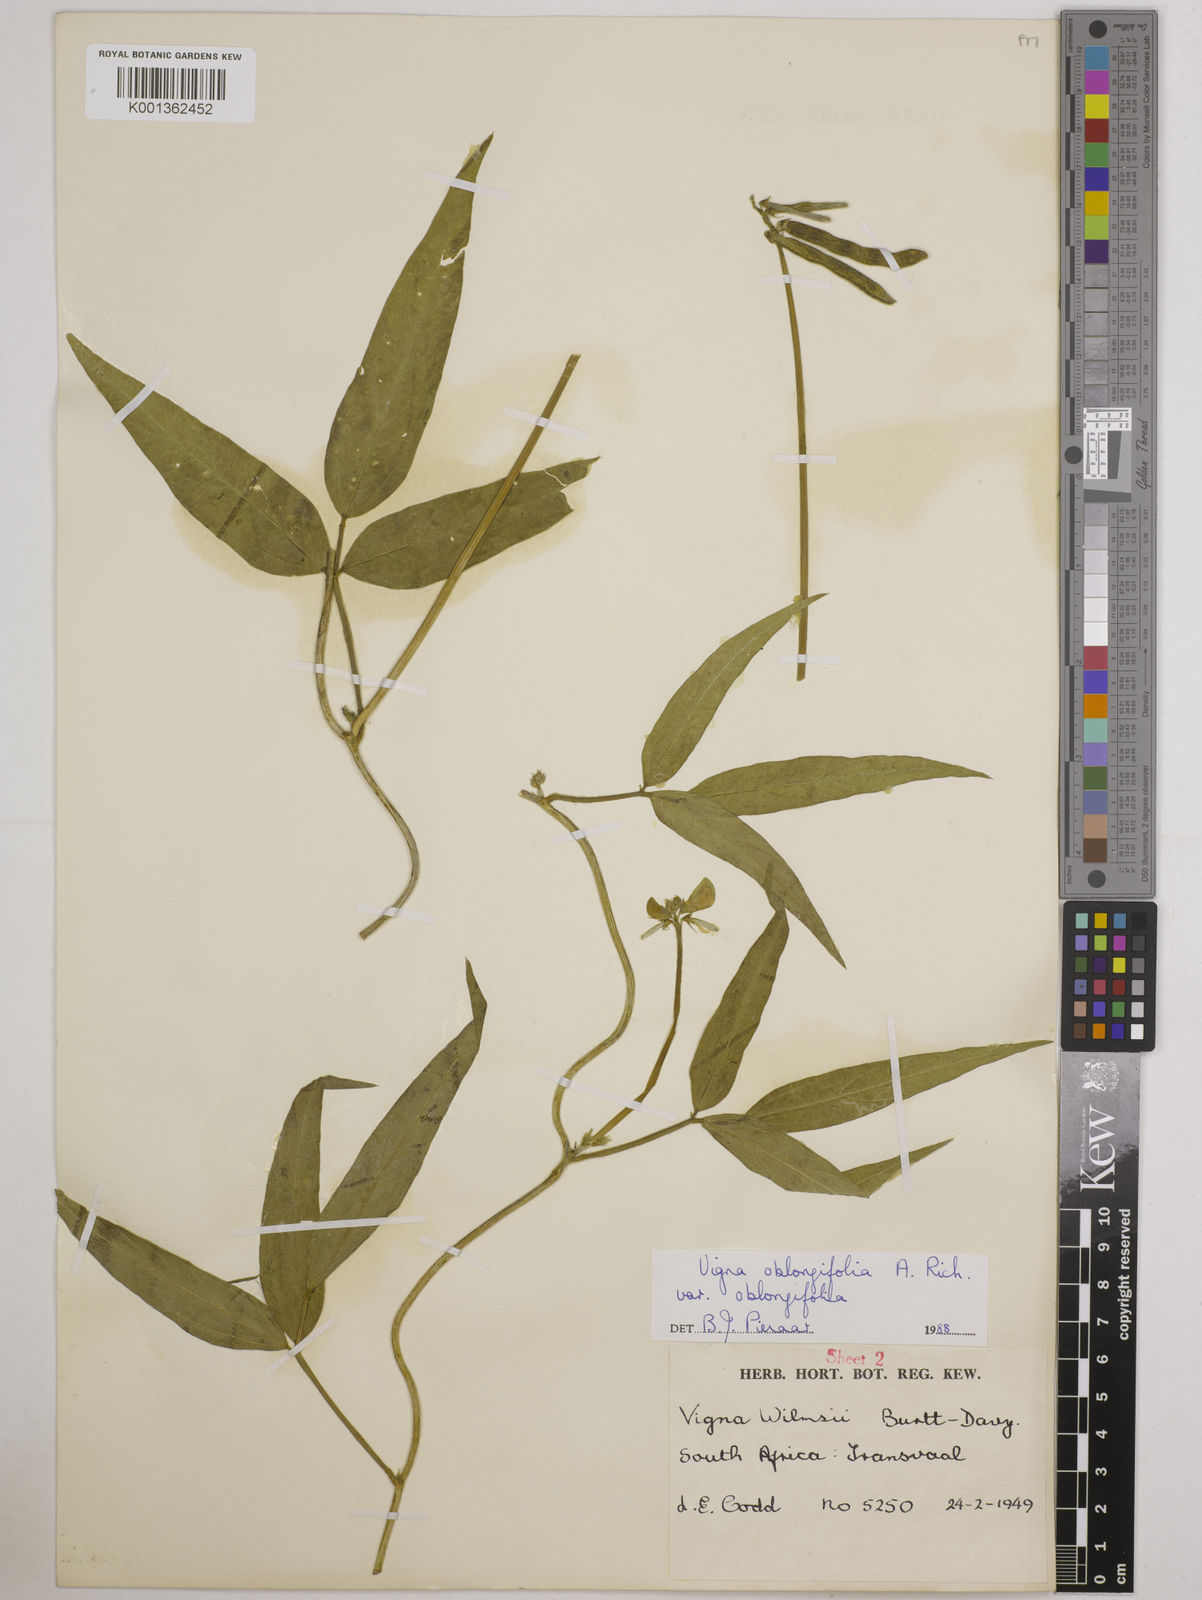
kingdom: Plantae
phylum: Tracheophyta
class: Magnoliopsida
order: Fabales
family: Fabaceae
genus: Vigna
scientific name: Vigna oblongifolia
